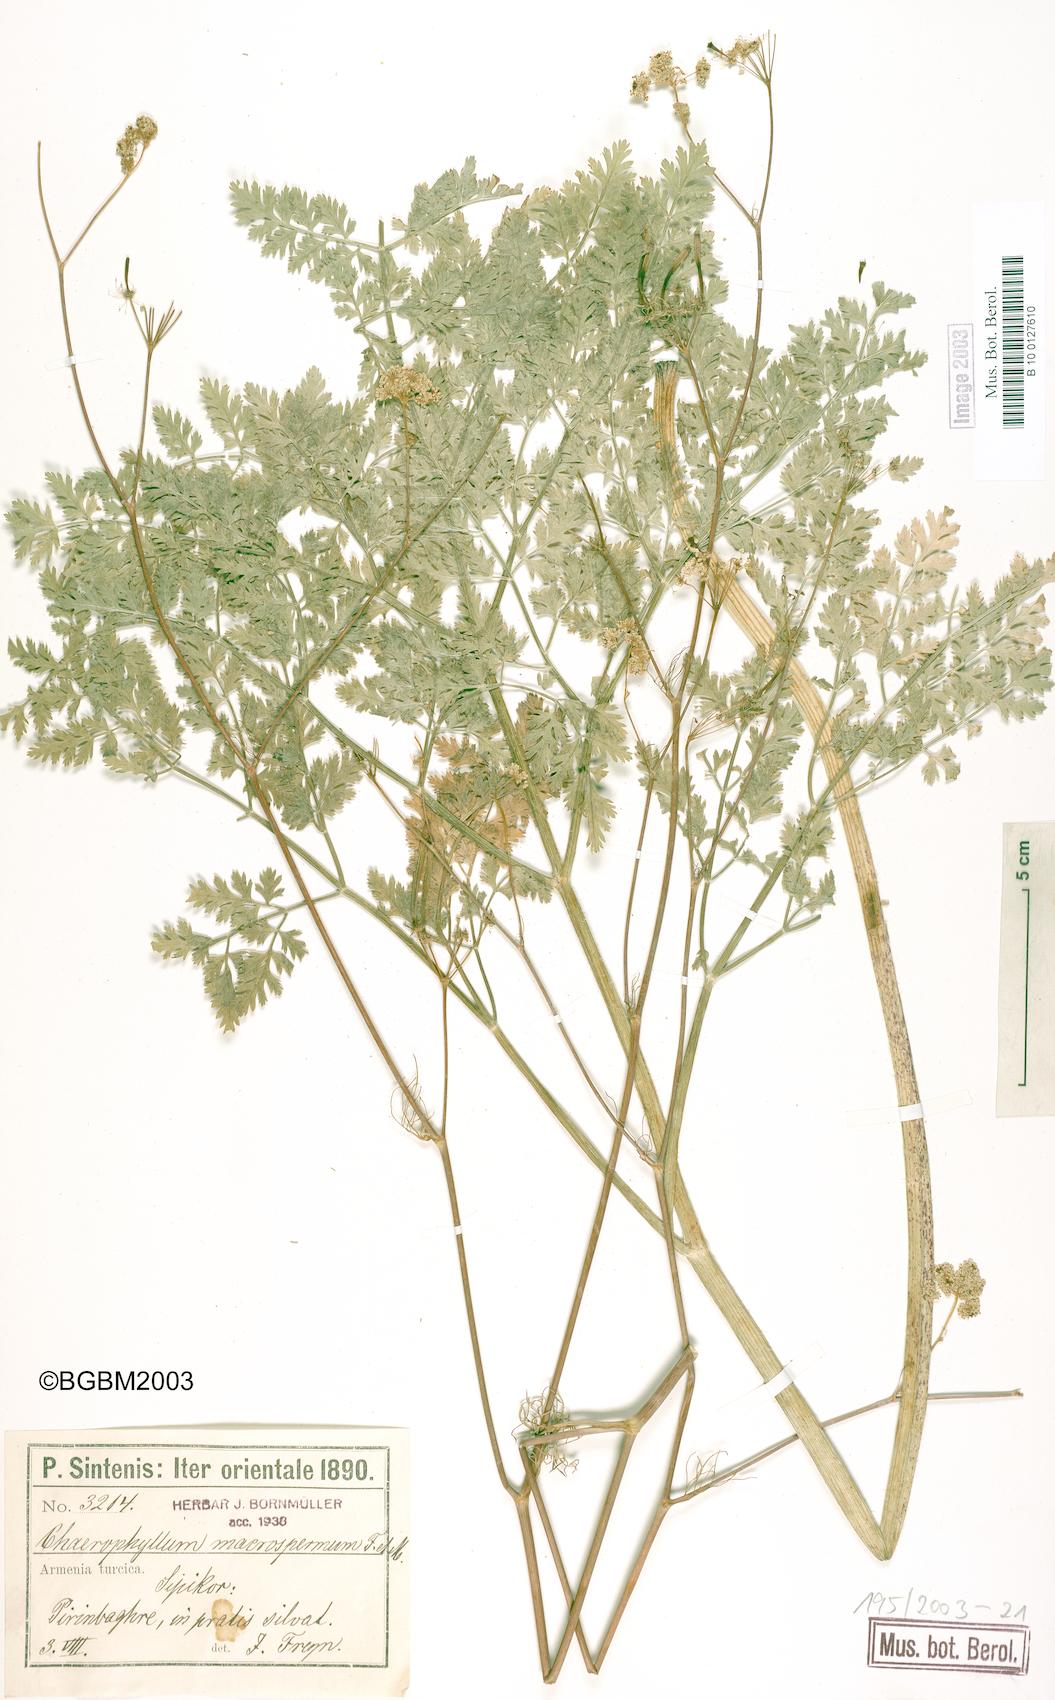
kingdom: Plantae
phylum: Tracheophyta
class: Magnoliopsida
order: Apiales
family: Apiaceae
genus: Chaerophyllum
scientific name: Chaerophyllum macrospermum
